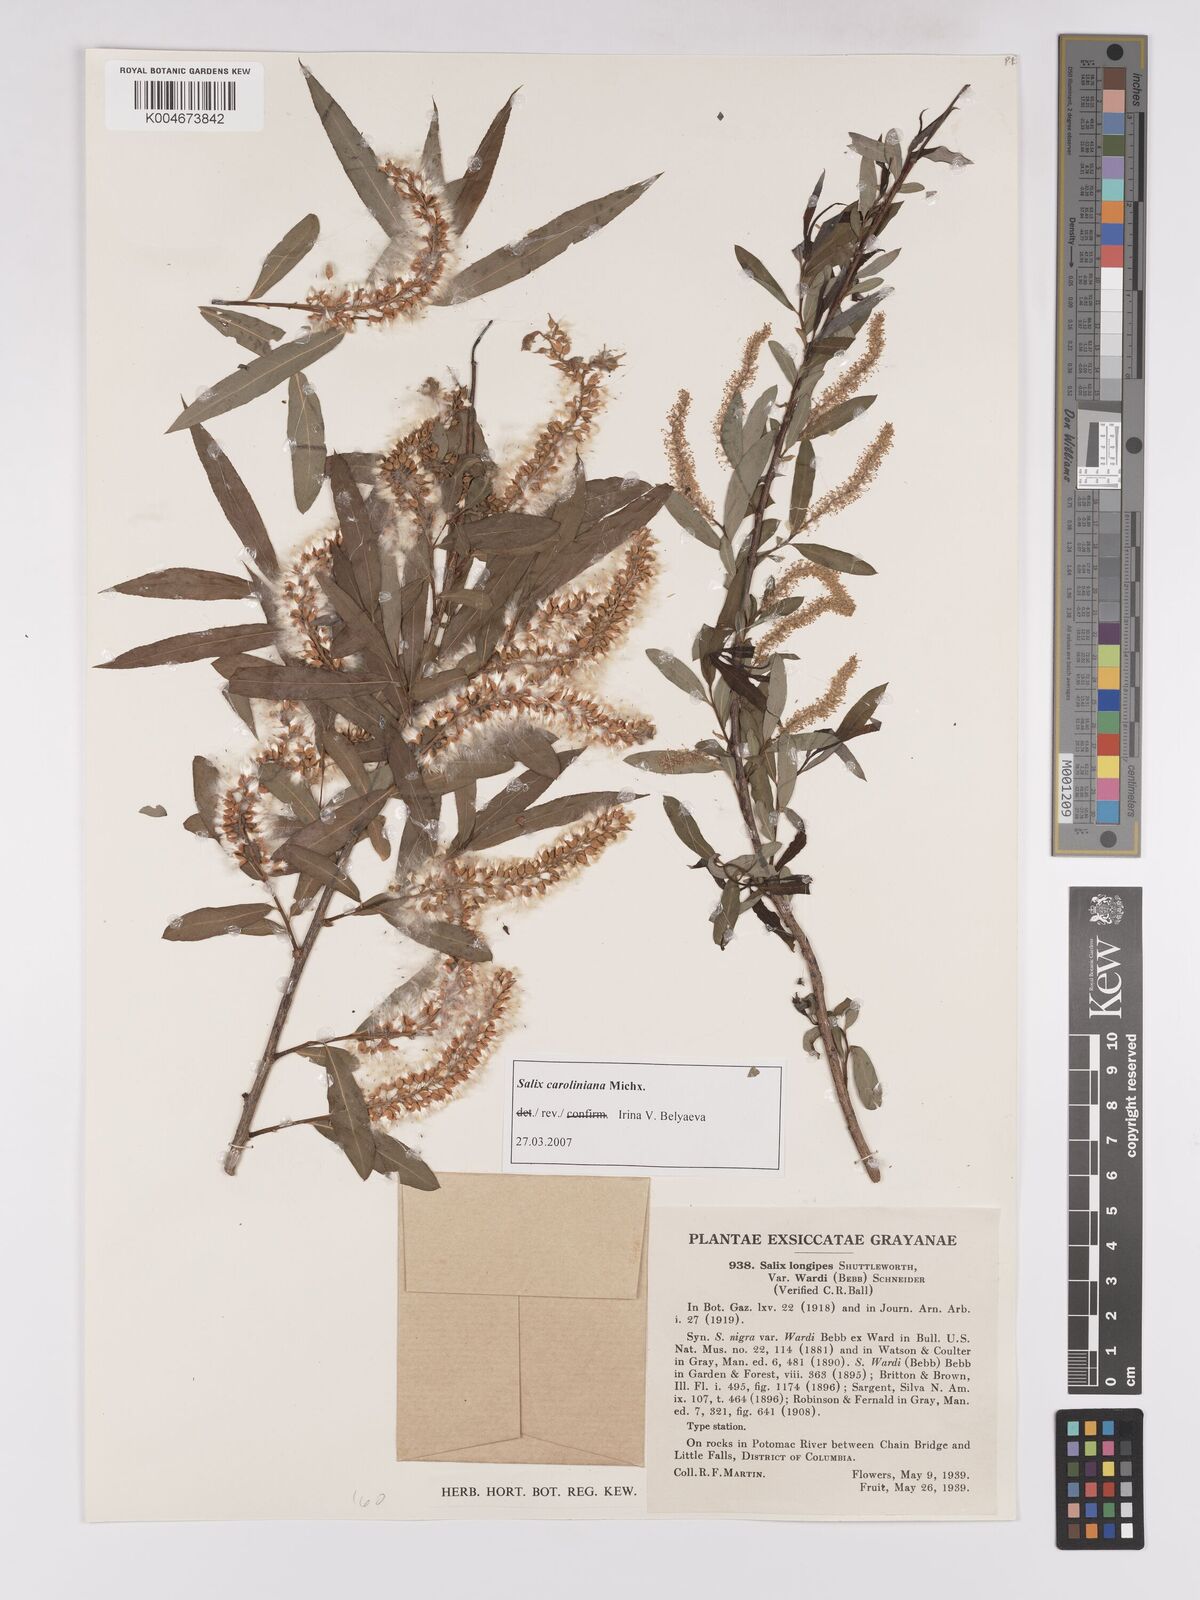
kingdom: Plantae
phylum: Tracheophyta
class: Magnoliopsida
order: Malpighiales
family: Salicaceae
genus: Salix
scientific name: Salix caroliniana
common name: Carolina willow
